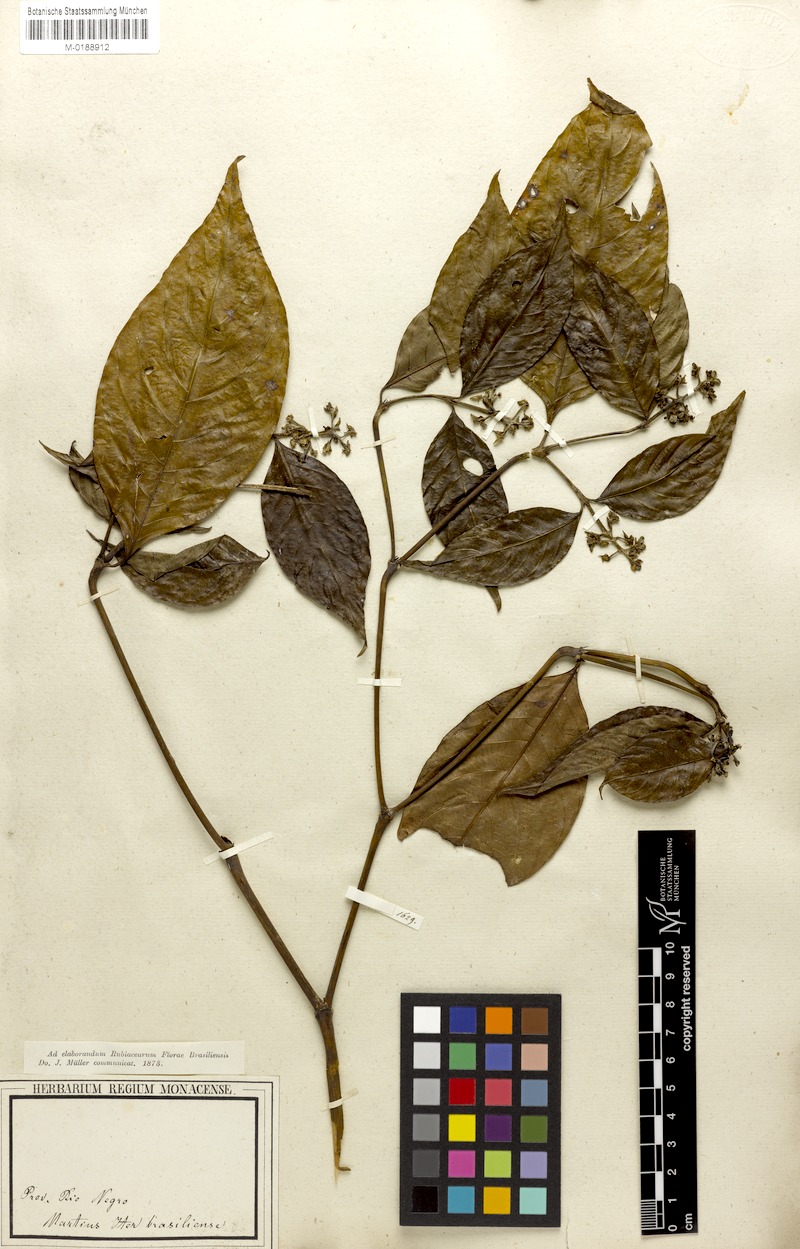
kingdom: Plantae
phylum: Tracheophyta
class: Magnoliopsida
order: Gentianales
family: Rubiaceae
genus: Palicourea
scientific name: Palicourea gracilenta
